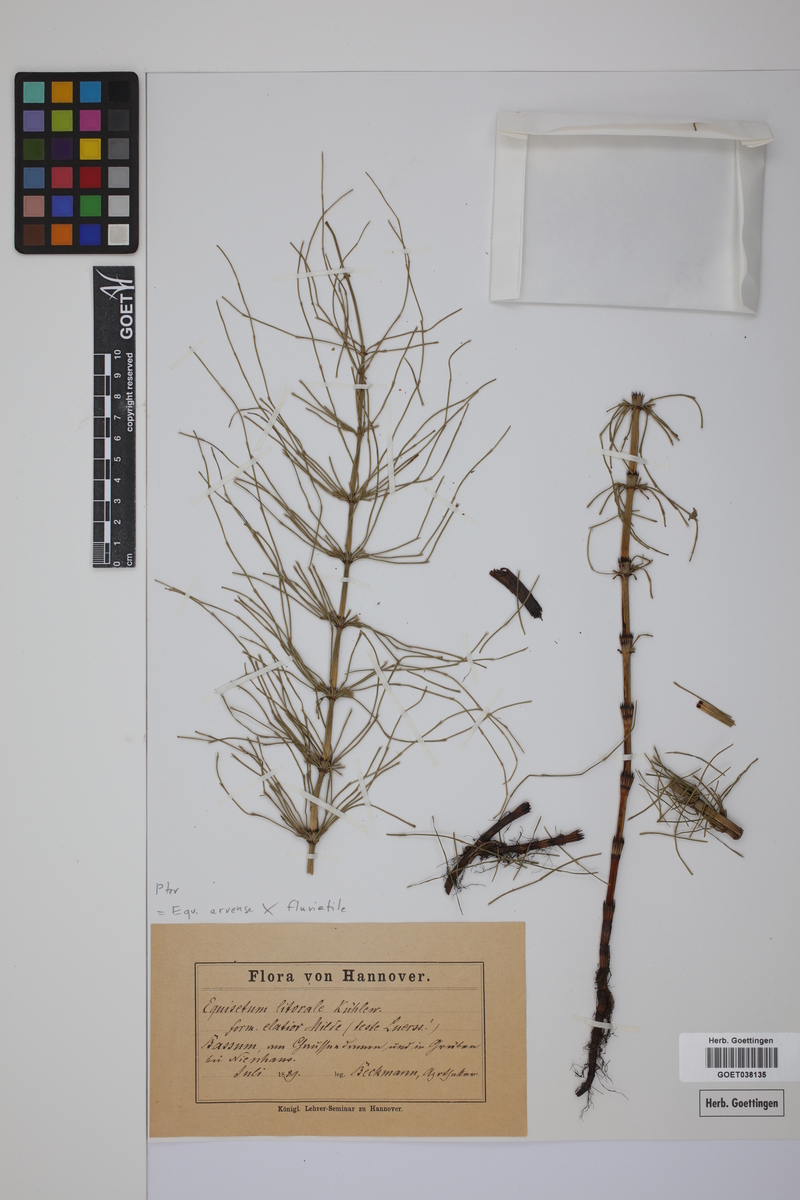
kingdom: Plantae
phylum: Tracheophyta
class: Polypodiopsida
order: Equisetales
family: Equisetaceae
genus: Equisetum
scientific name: Equisetum litorale
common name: Littoral horsetail
